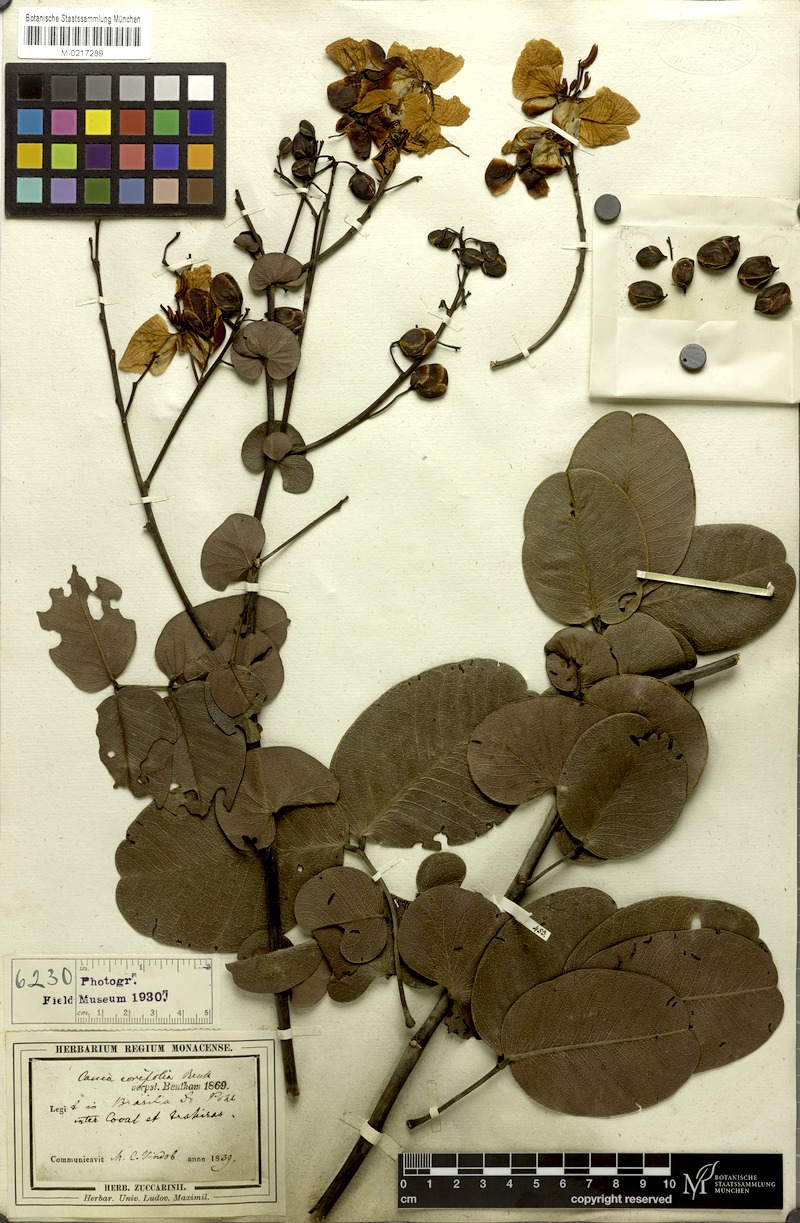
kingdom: Plantae
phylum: Tracheophyta
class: Magnoliopsida
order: Fabales
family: Fabaceae
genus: Senna
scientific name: Senna corifolia
